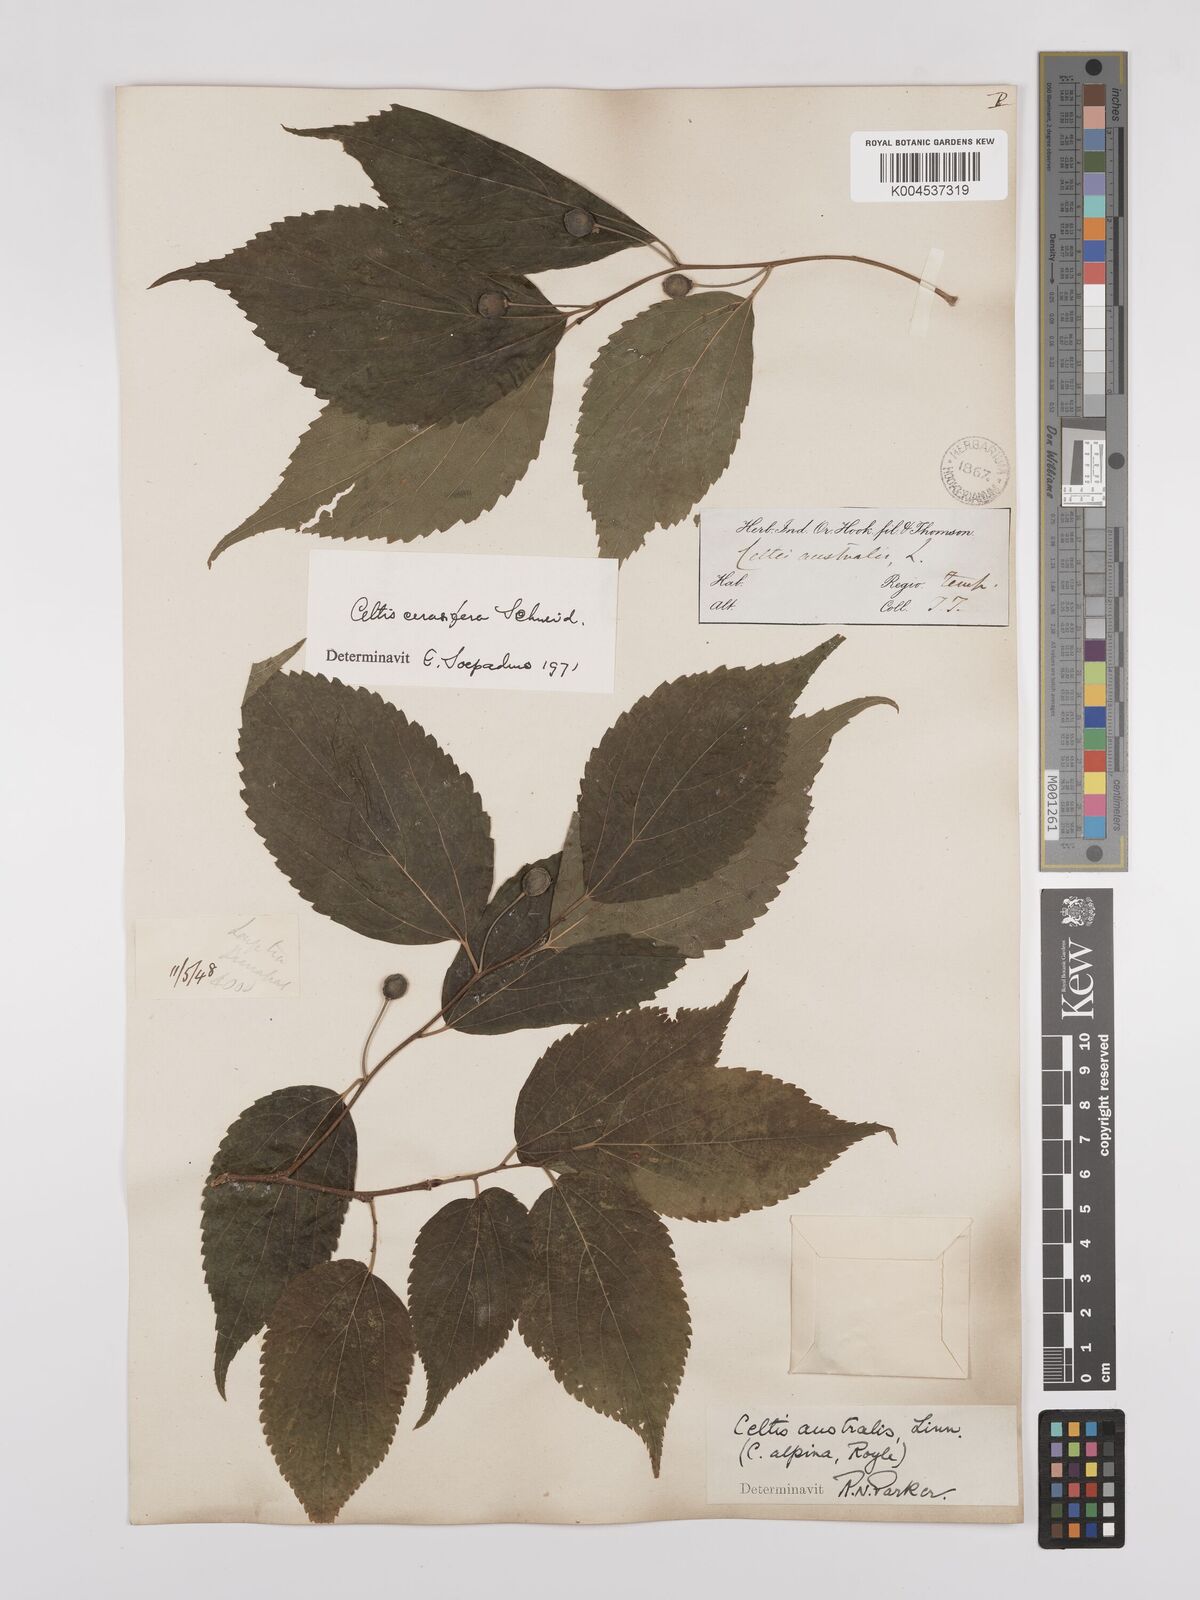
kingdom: Plantae
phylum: Tracheophyta
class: Magnoliopsida
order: Rosales
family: Cannabaceae
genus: Celtis
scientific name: Celtis cerasifera
